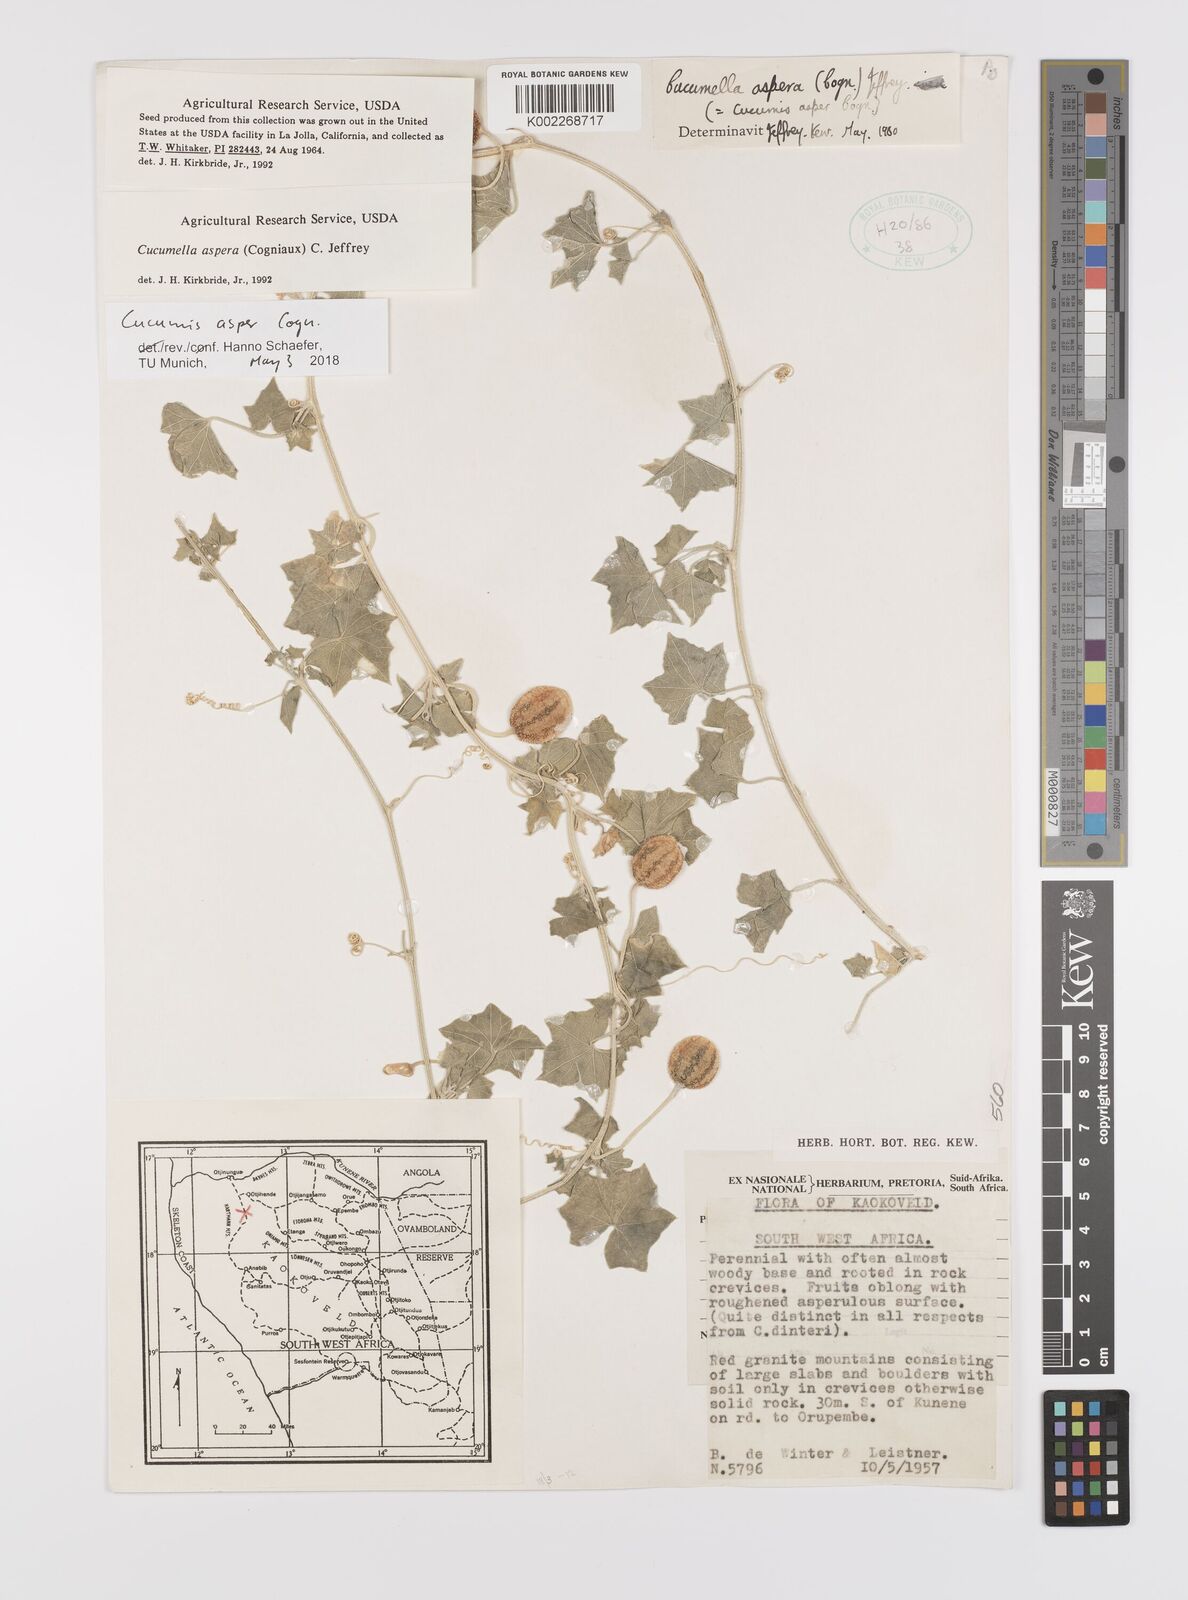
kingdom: Plantae
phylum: Tracheophyta
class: Magnoliopsida
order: Cucurbitales
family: Cucurbitaceae
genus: Cucumis
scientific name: Cucumis asper
